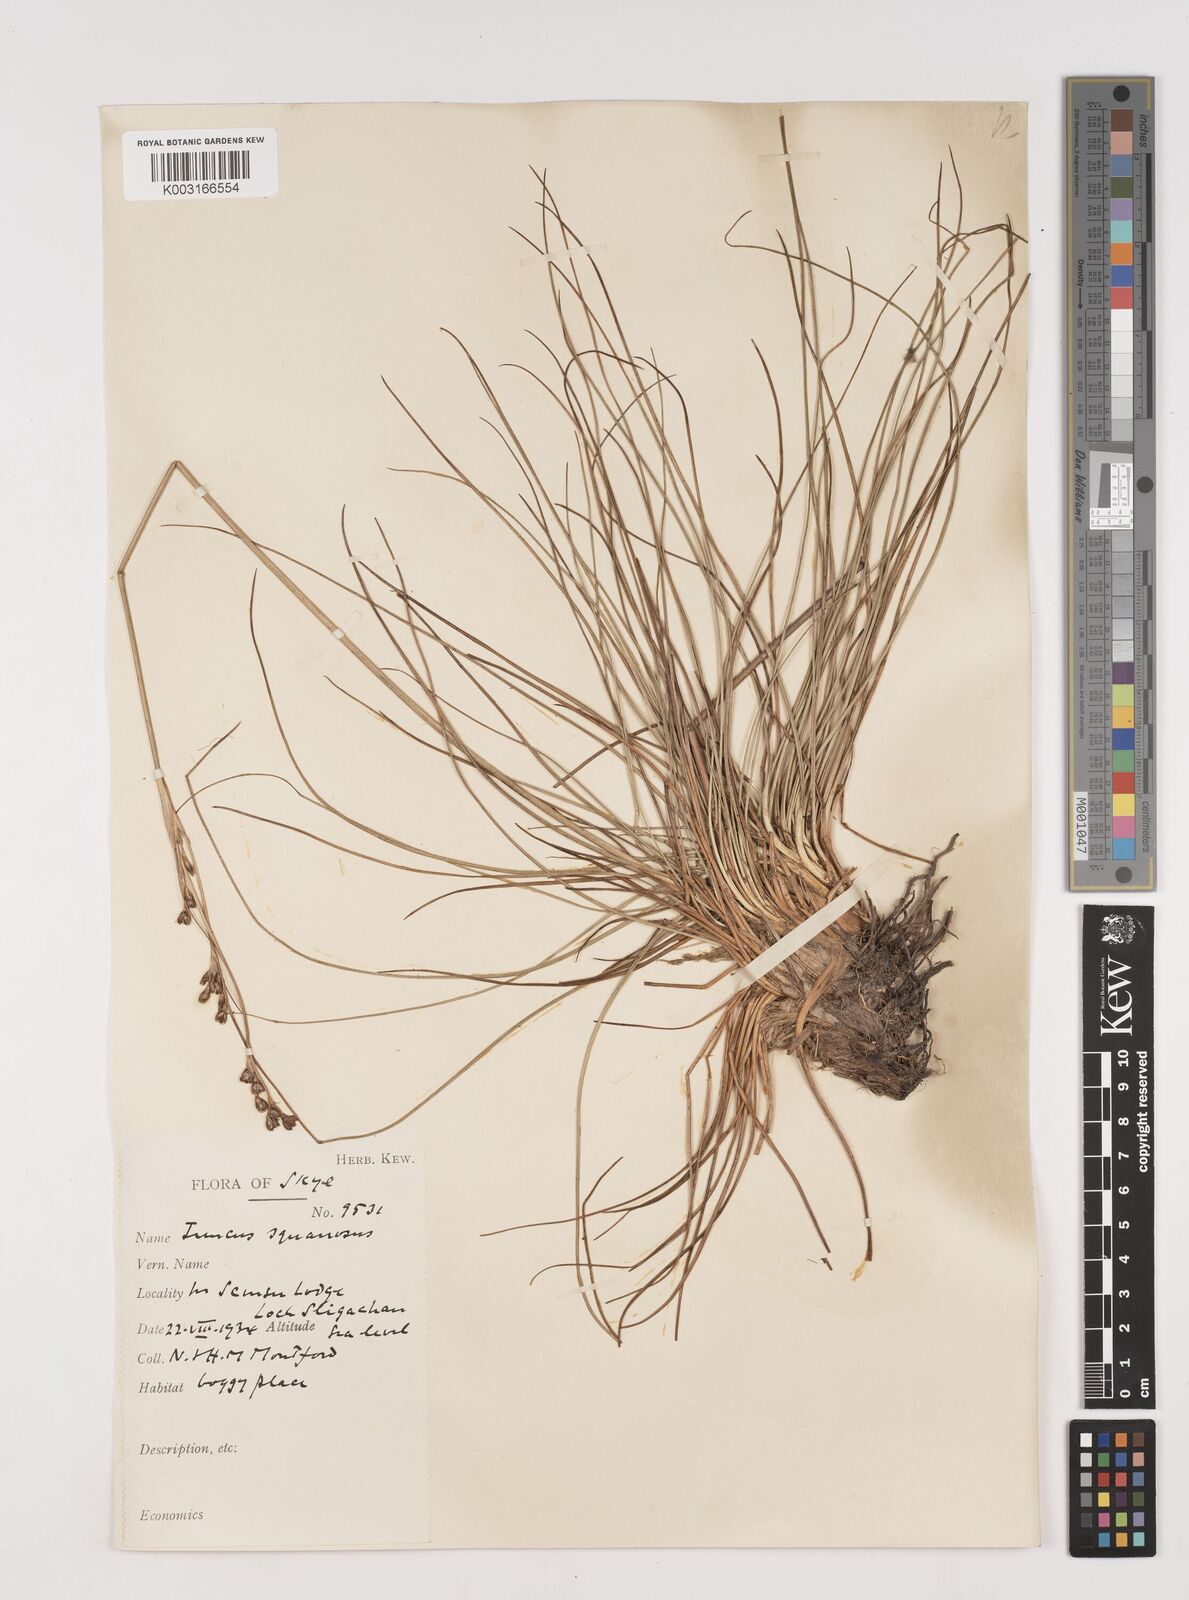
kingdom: Plantae
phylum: Tracheophyta
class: Liliopsida
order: Poales
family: Juncaceae
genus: Juncus
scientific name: Juncus squarrosus
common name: Heath rush
